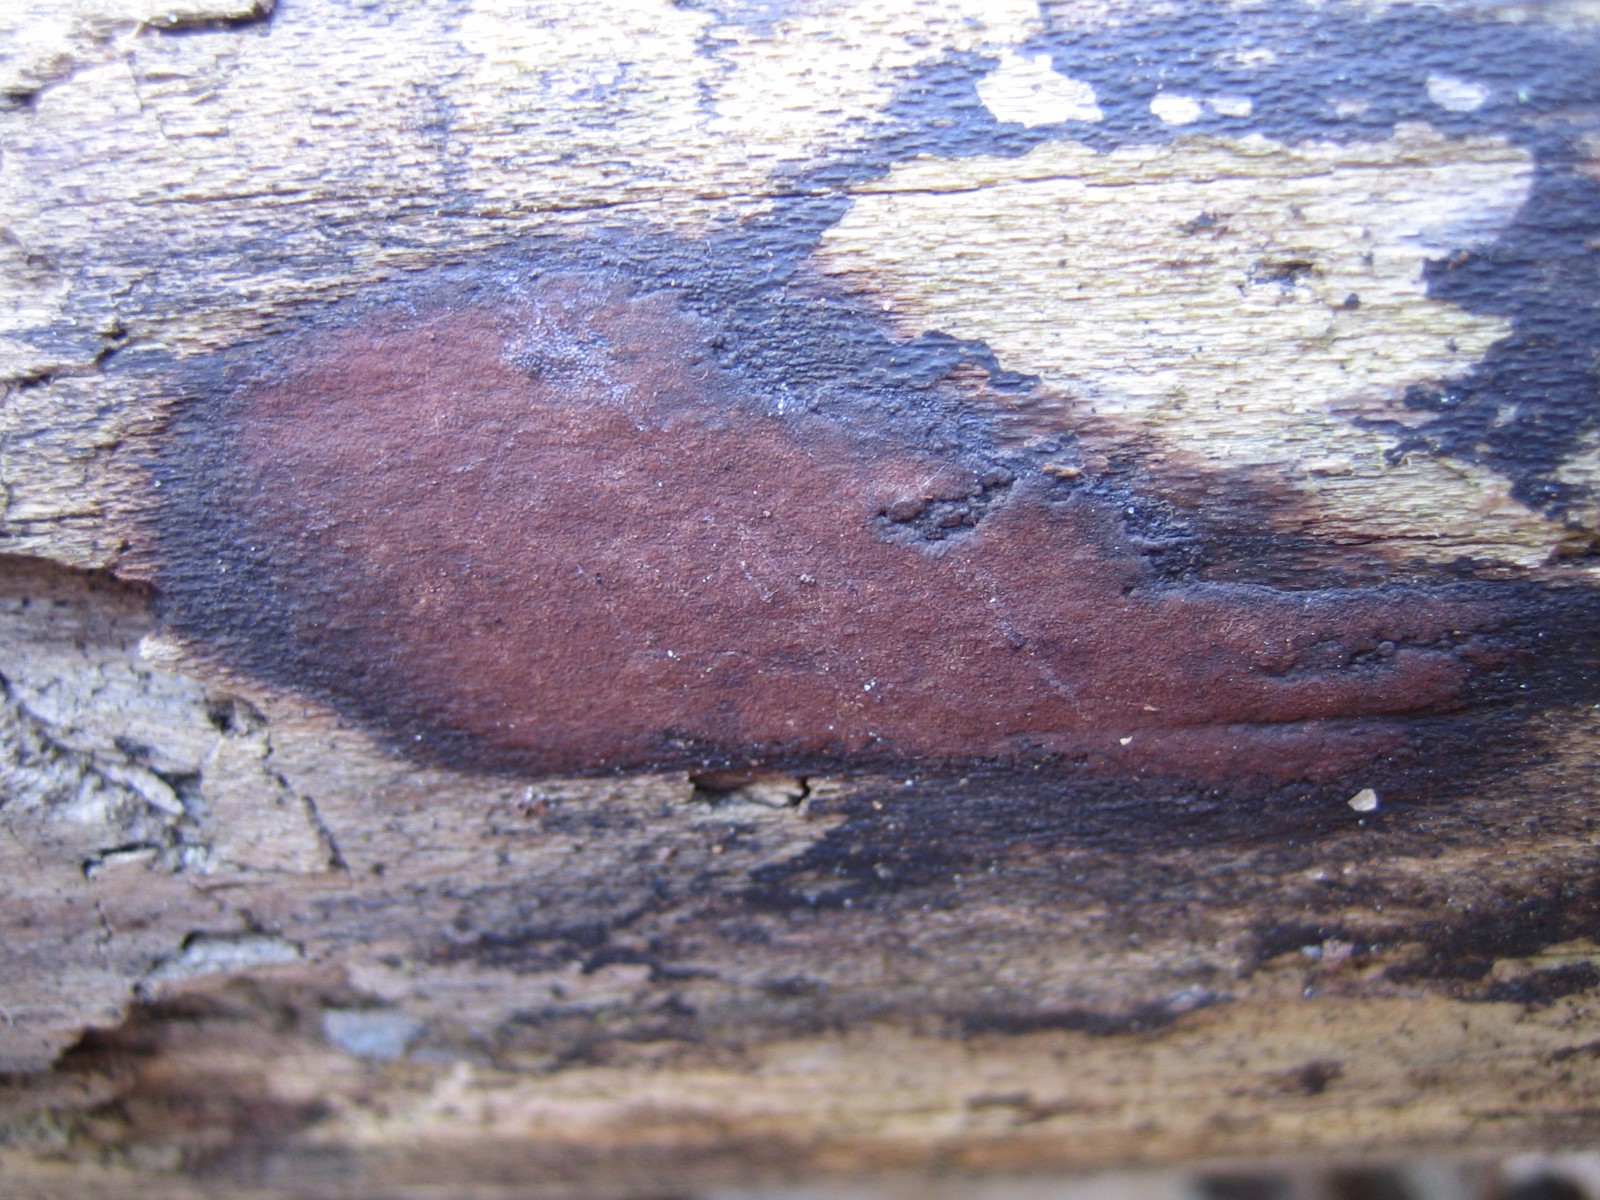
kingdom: Fungi
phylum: Ascomycota
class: Sordariomycetes
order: Xylariales
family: Hypoxylaceae
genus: Hypoxylon
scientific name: Hypoxylon macrocarpum
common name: skorpe-kulbær
